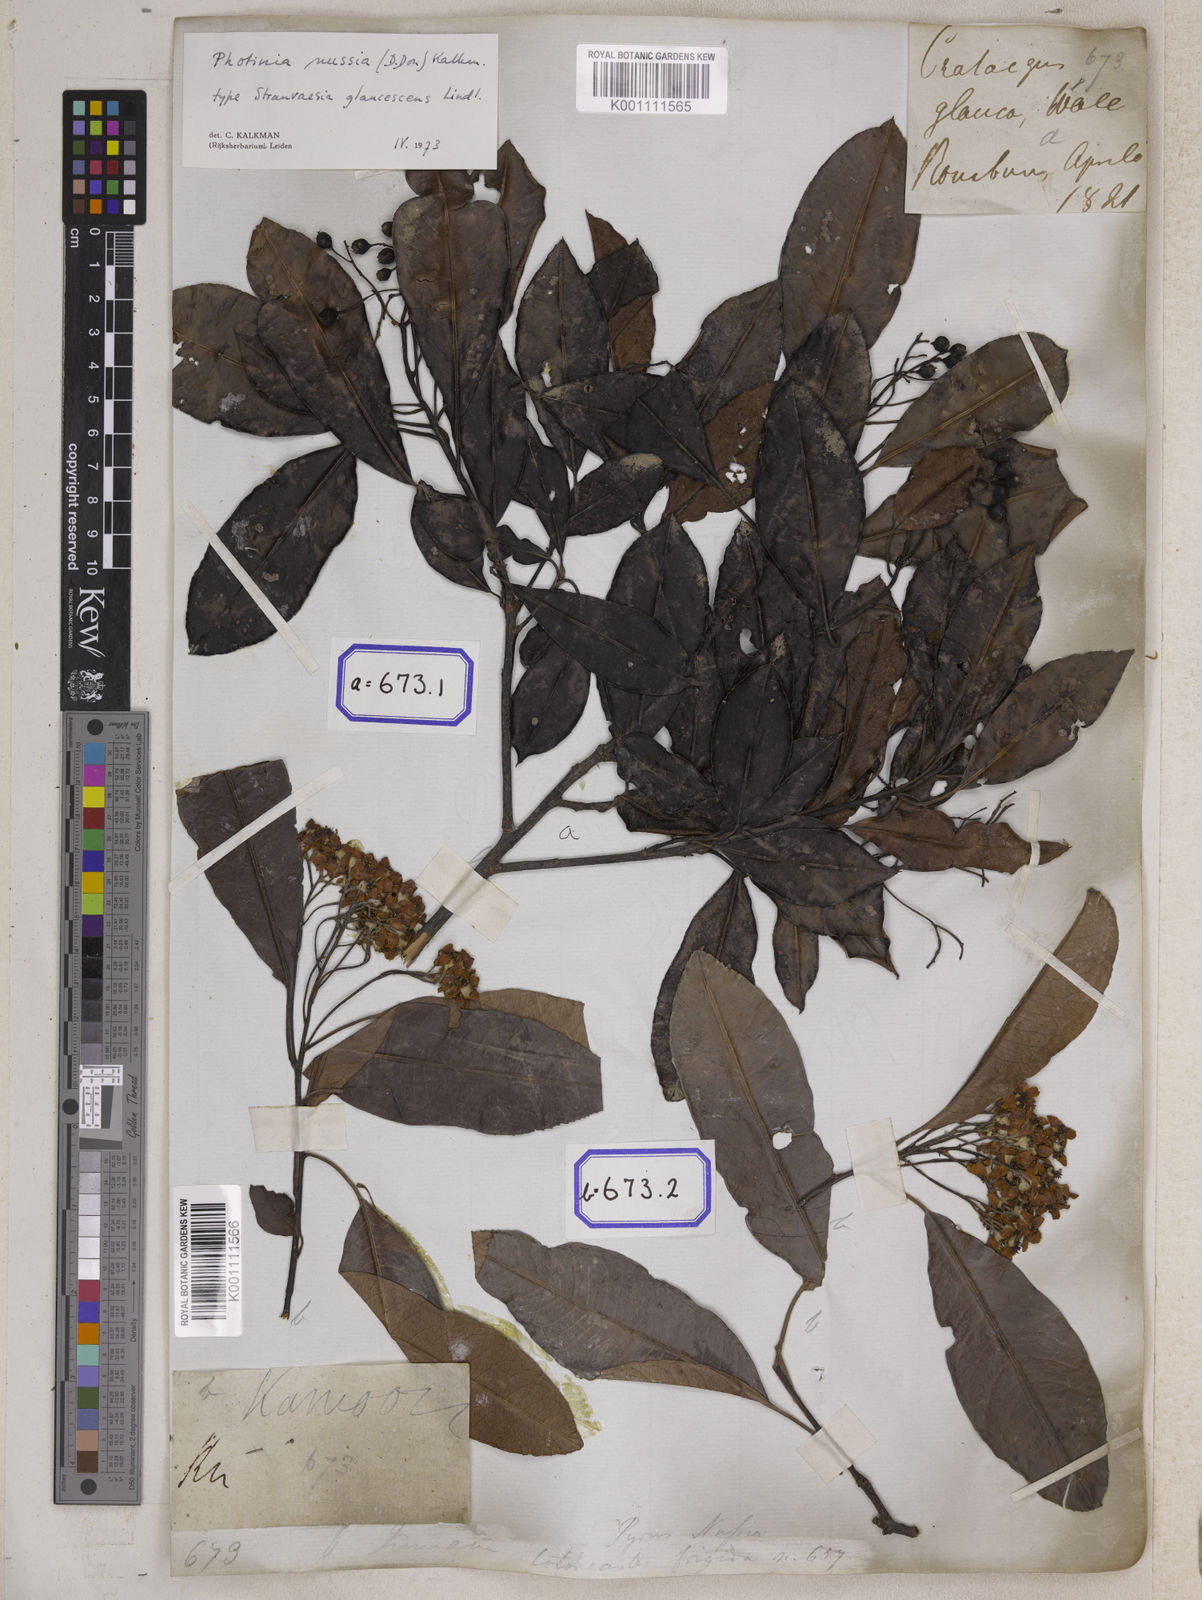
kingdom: Plantae
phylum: Tracheophyta
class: Magnoliopsida
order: Rosales
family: Rosaceae
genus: Crataegus
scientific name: Crataegus
